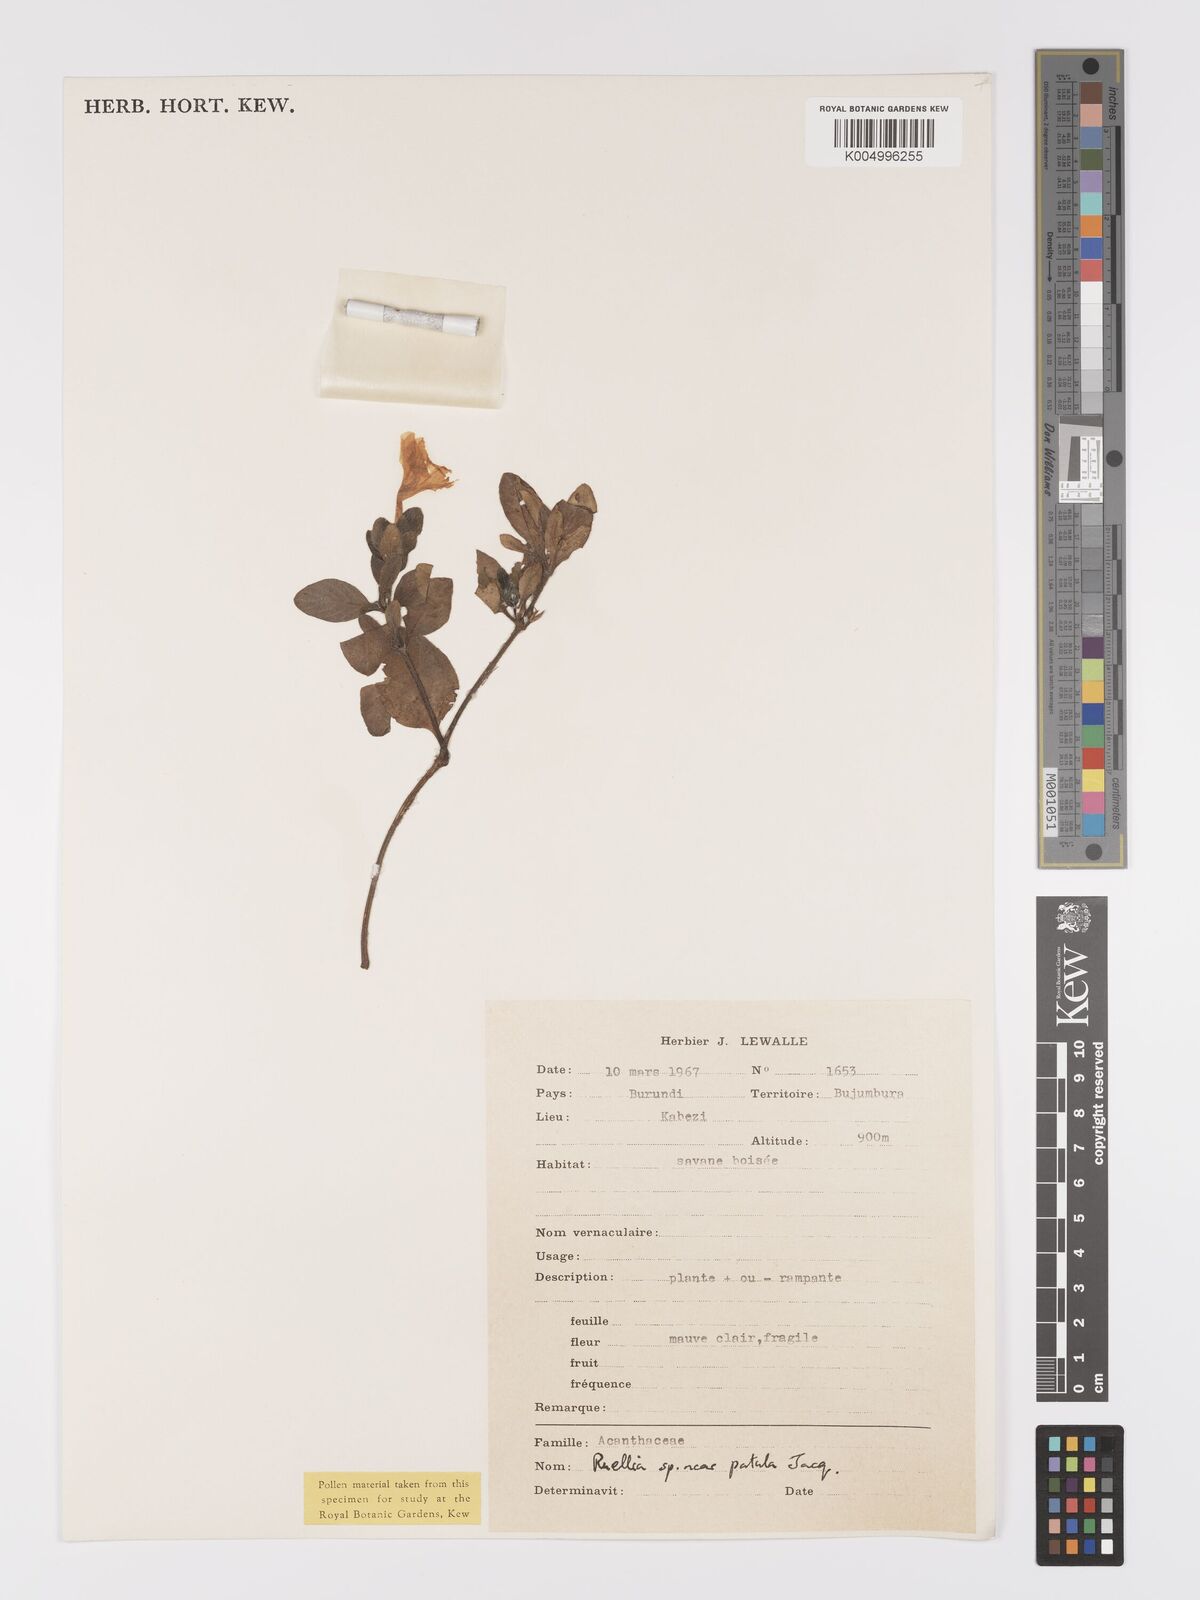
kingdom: Plantae
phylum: Tracheophyta
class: Magnoliopsida
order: Lamiales
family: Acanthaceae
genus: Ruellia
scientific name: Ruellia patula
